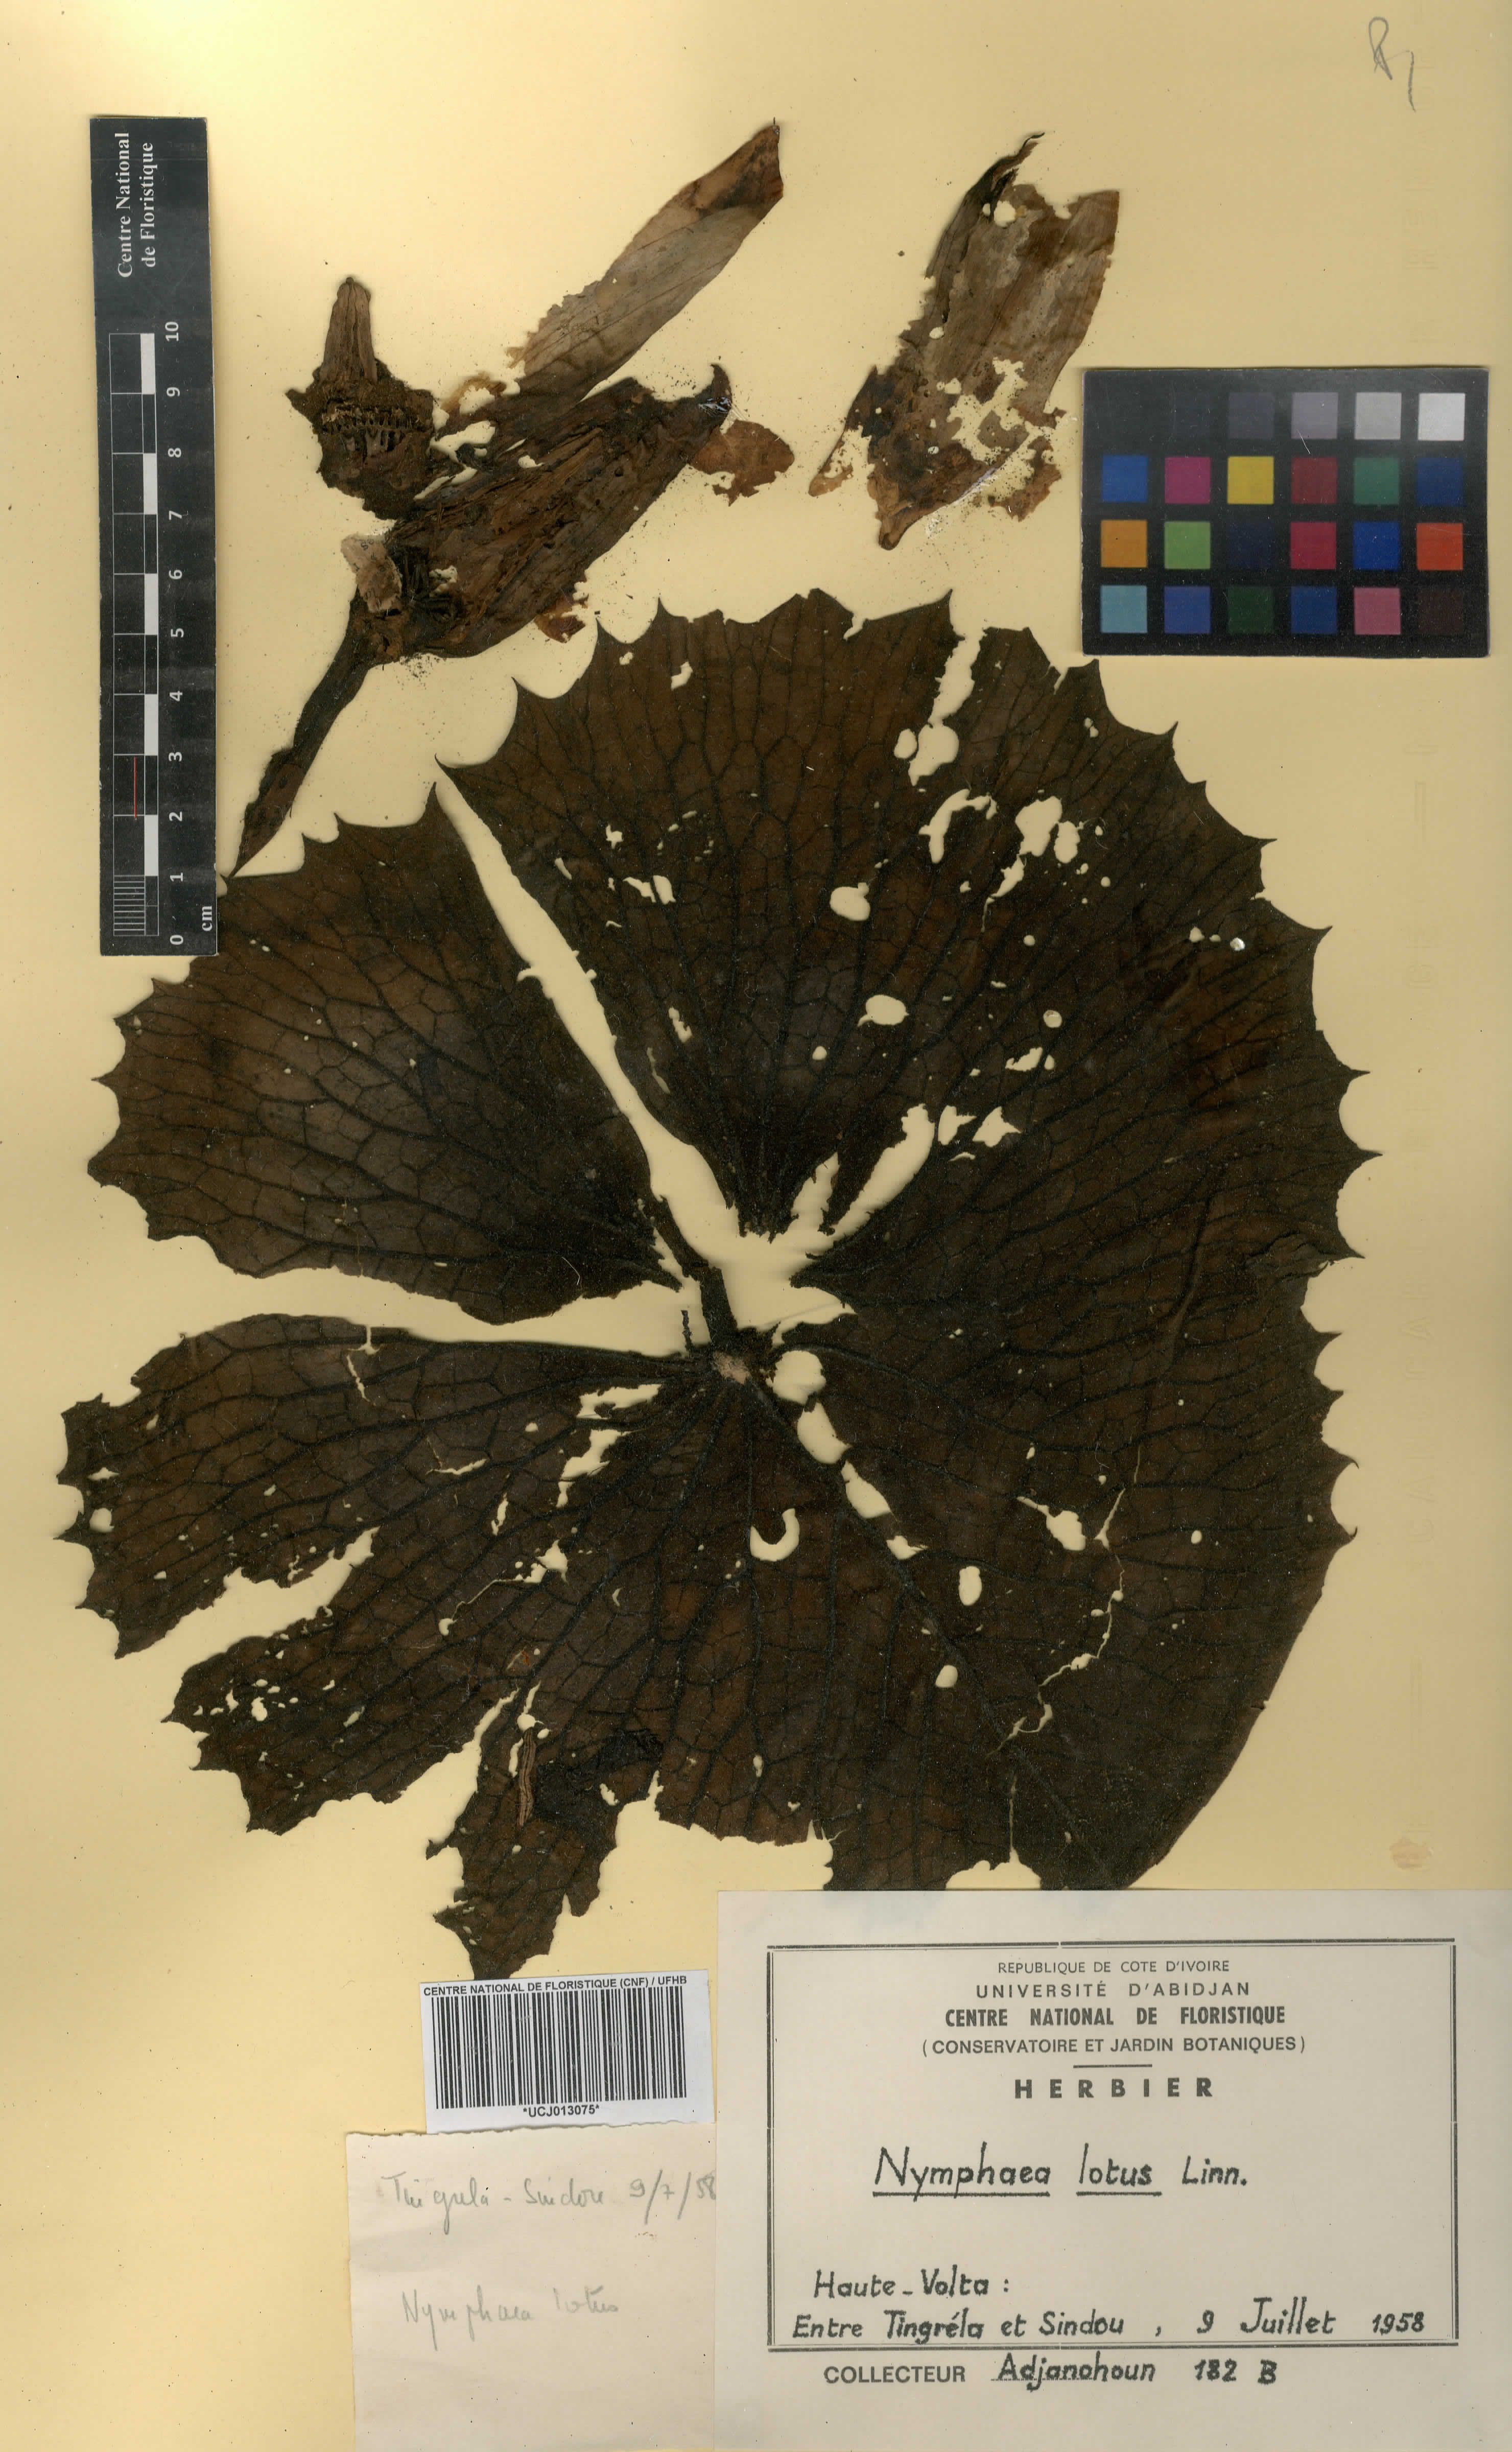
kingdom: Plantae
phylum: Tracheophyta
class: Magnoliopsida
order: Nymphaeales
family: Nymphaeaceae
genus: Nymphaea
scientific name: Nymphaea lotus
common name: White egyptian lotus
